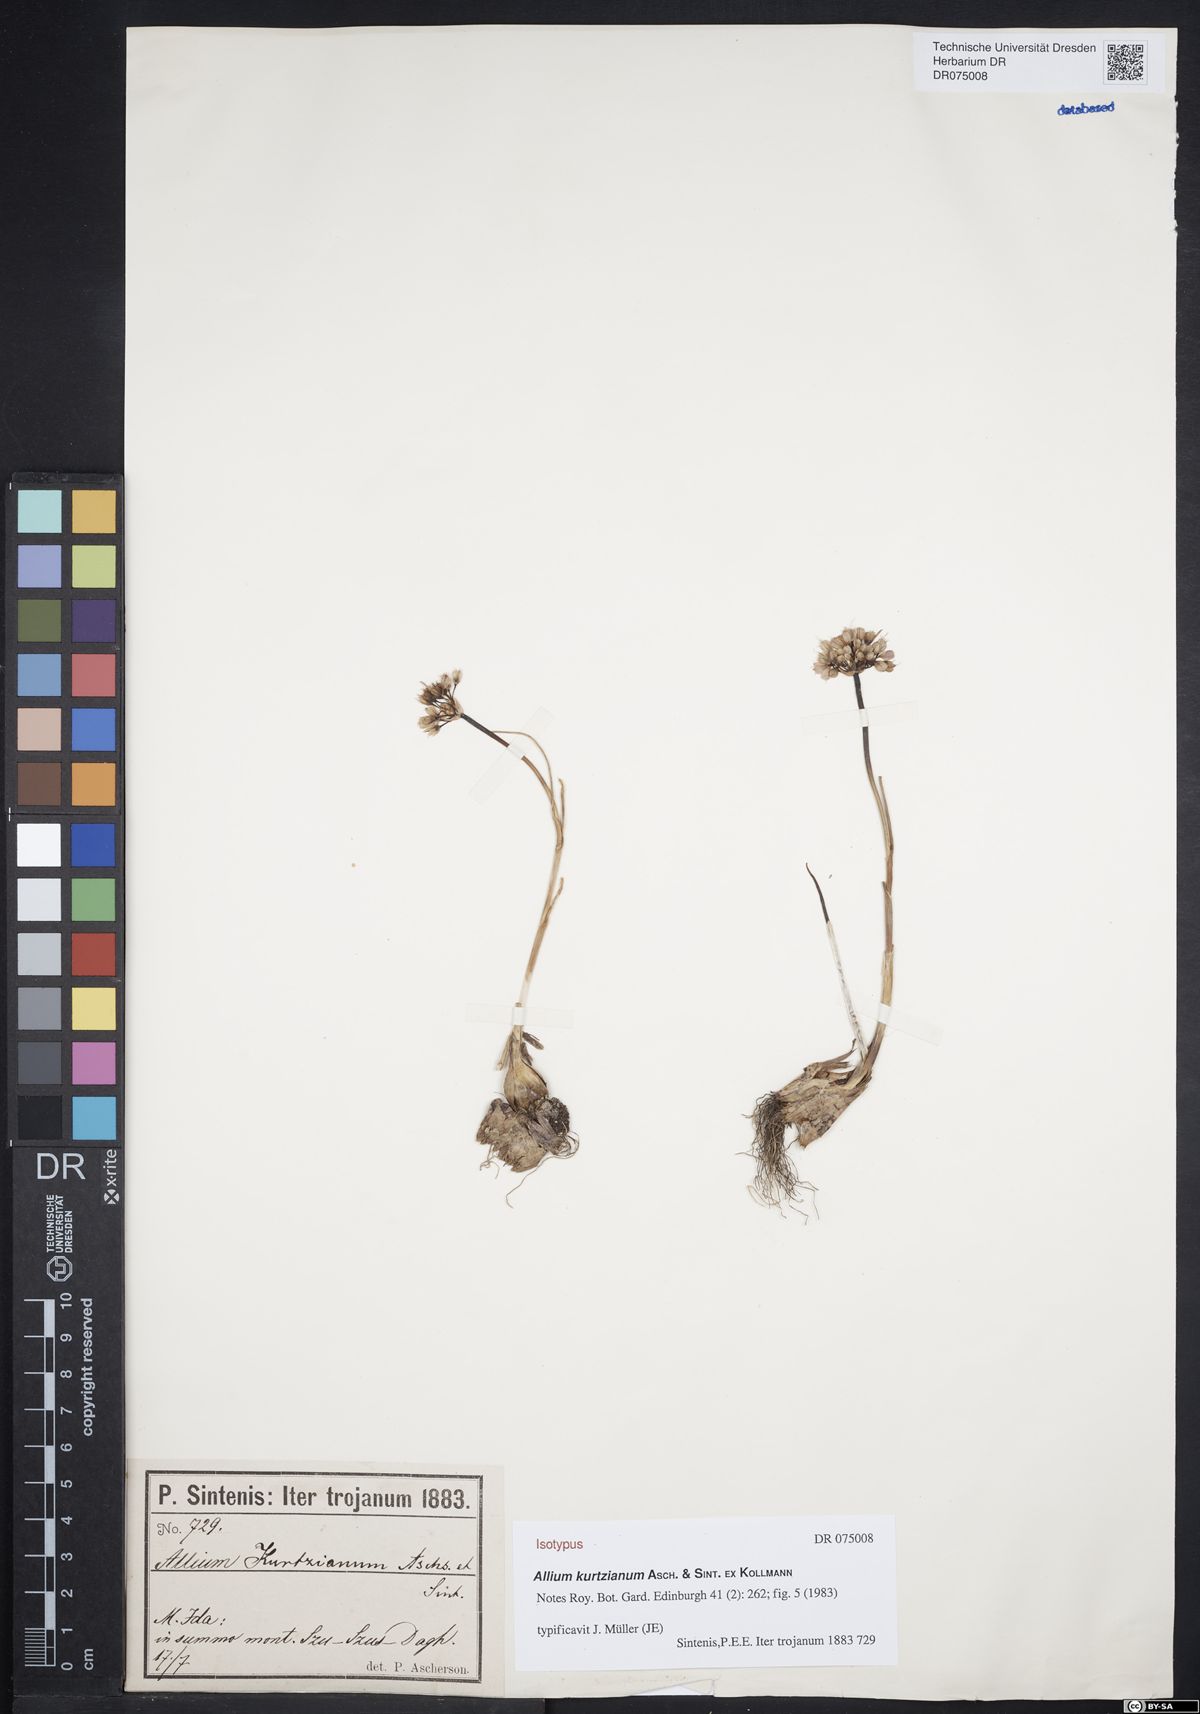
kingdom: Plantae
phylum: Tracheophyta
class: Liliopsida
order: Asparagales
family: Amaryllidaceae
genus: Allium
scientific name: Allium kurtzianum
